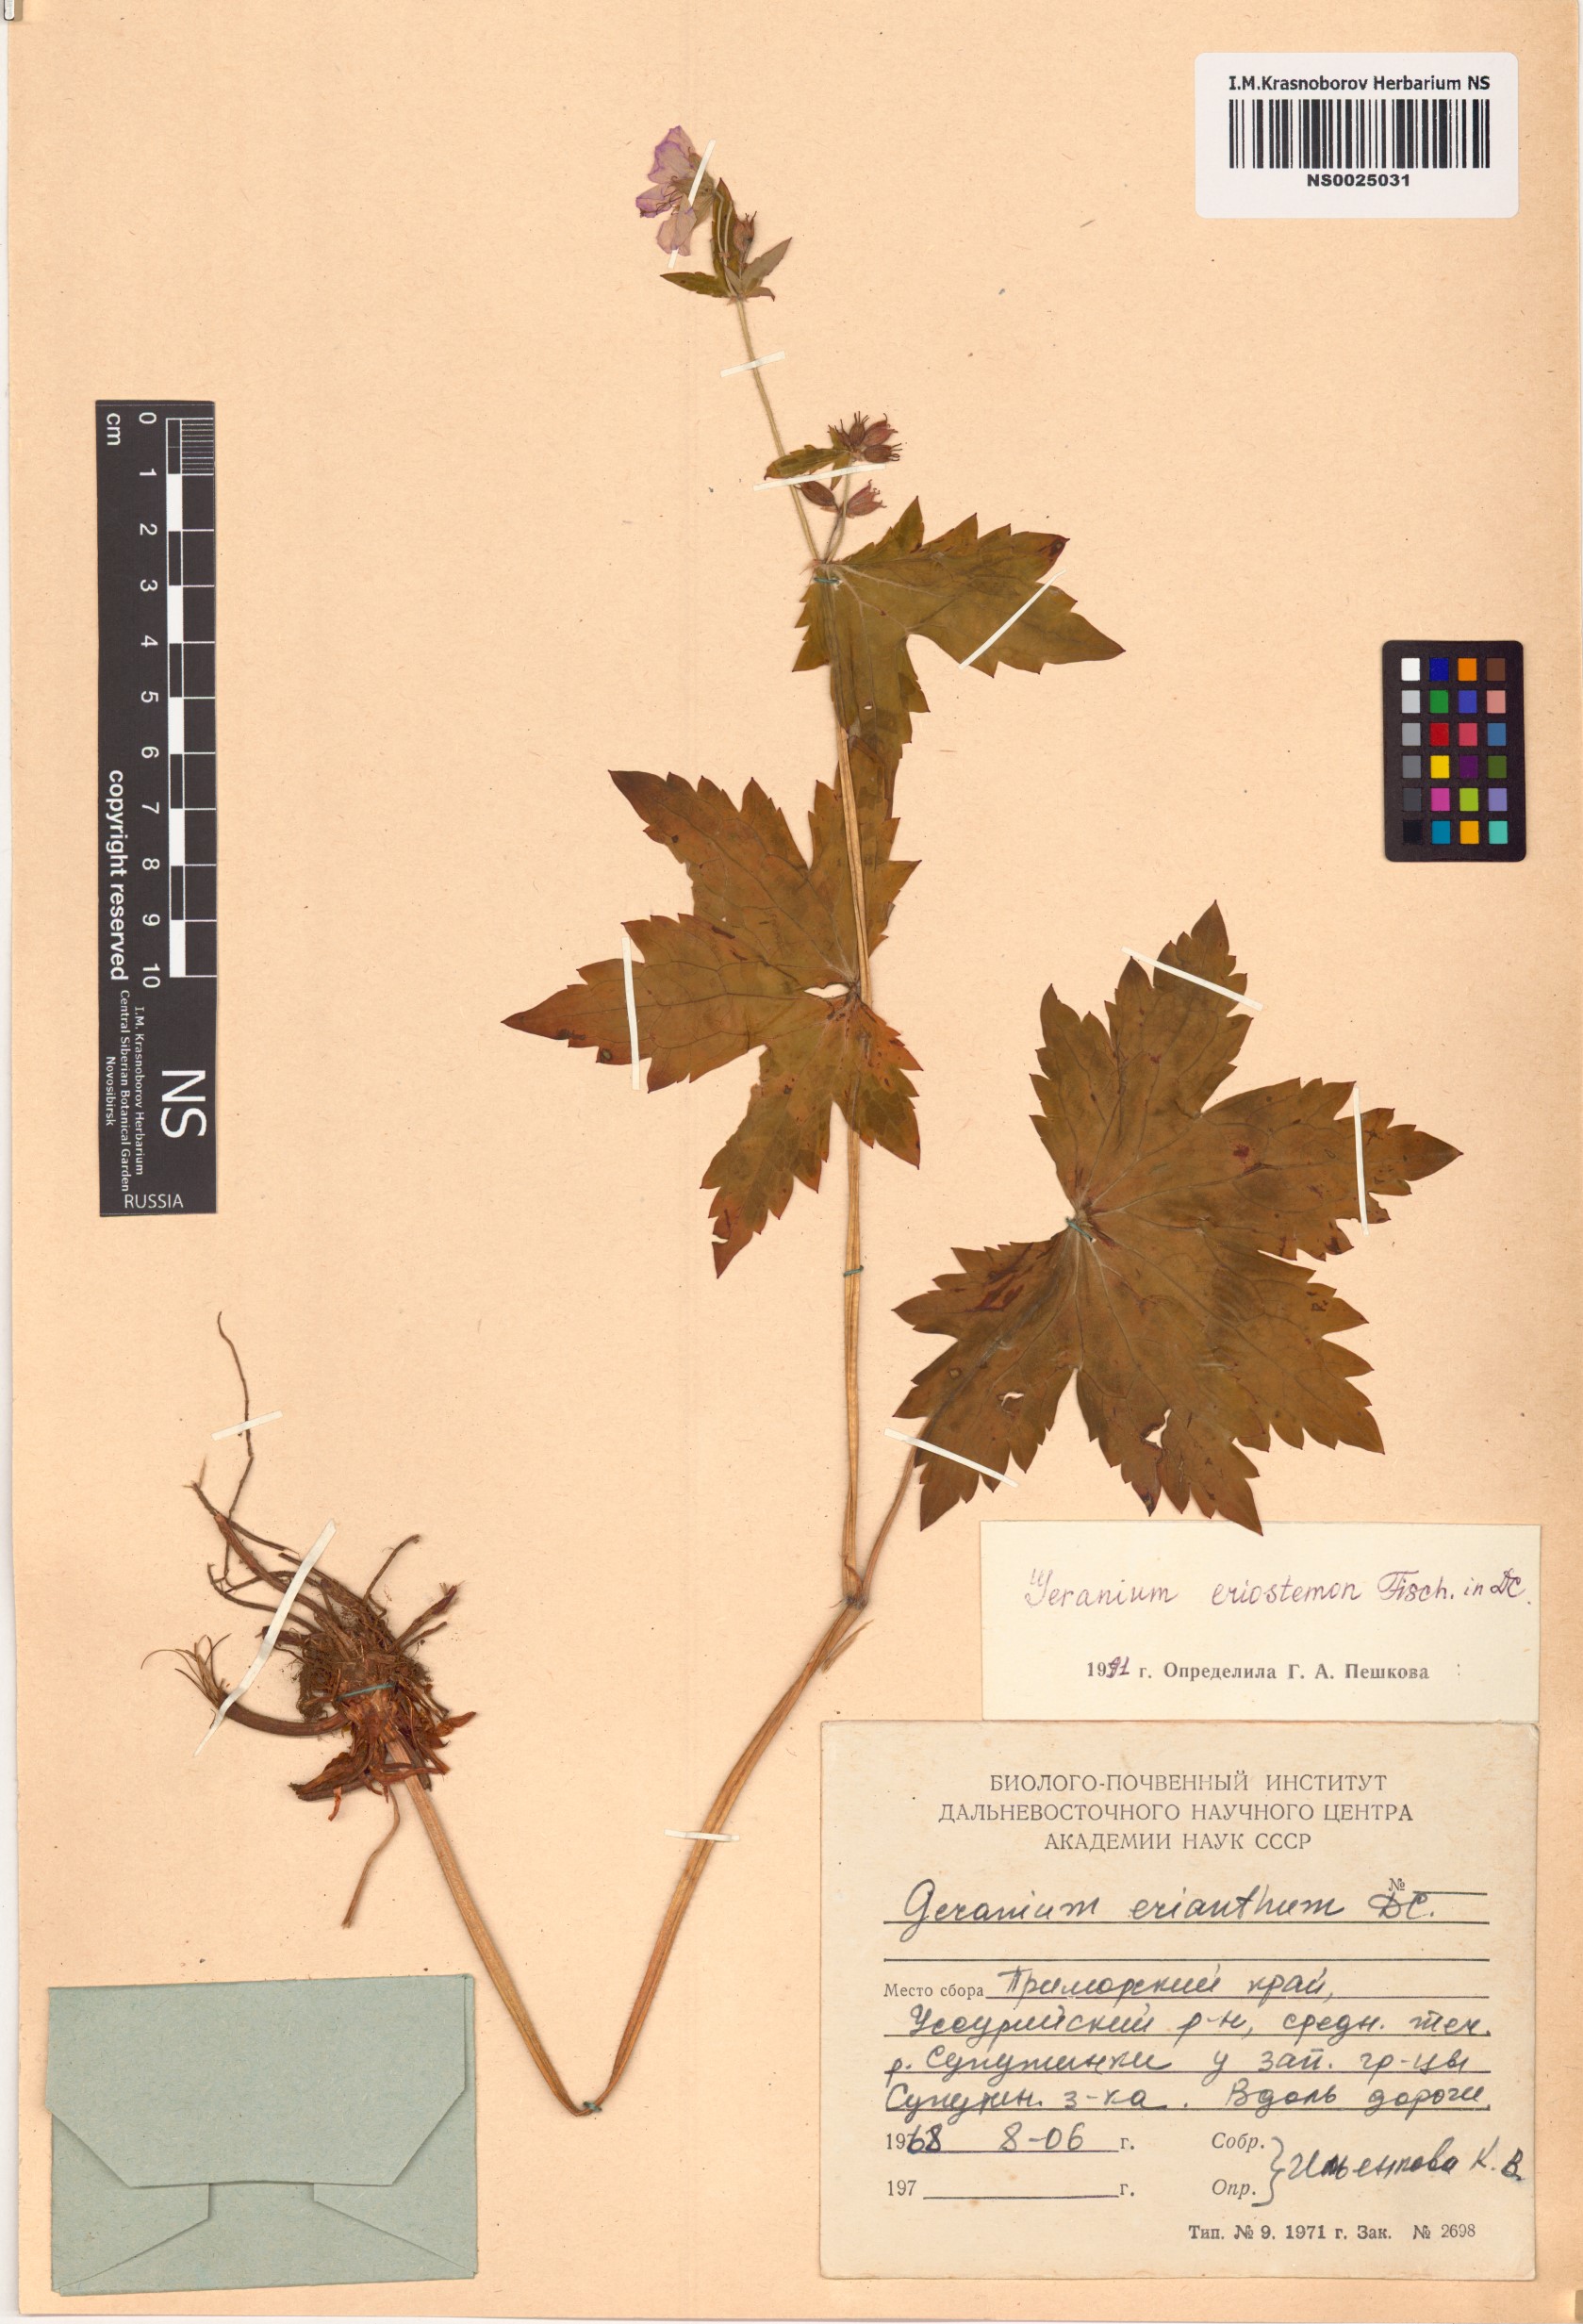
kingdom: Plantae
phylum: Tracheophyta
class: Magnoliopsida
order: Geraniales
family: Geraniaceae
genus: Geranium
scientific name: Geranium platyanthum
